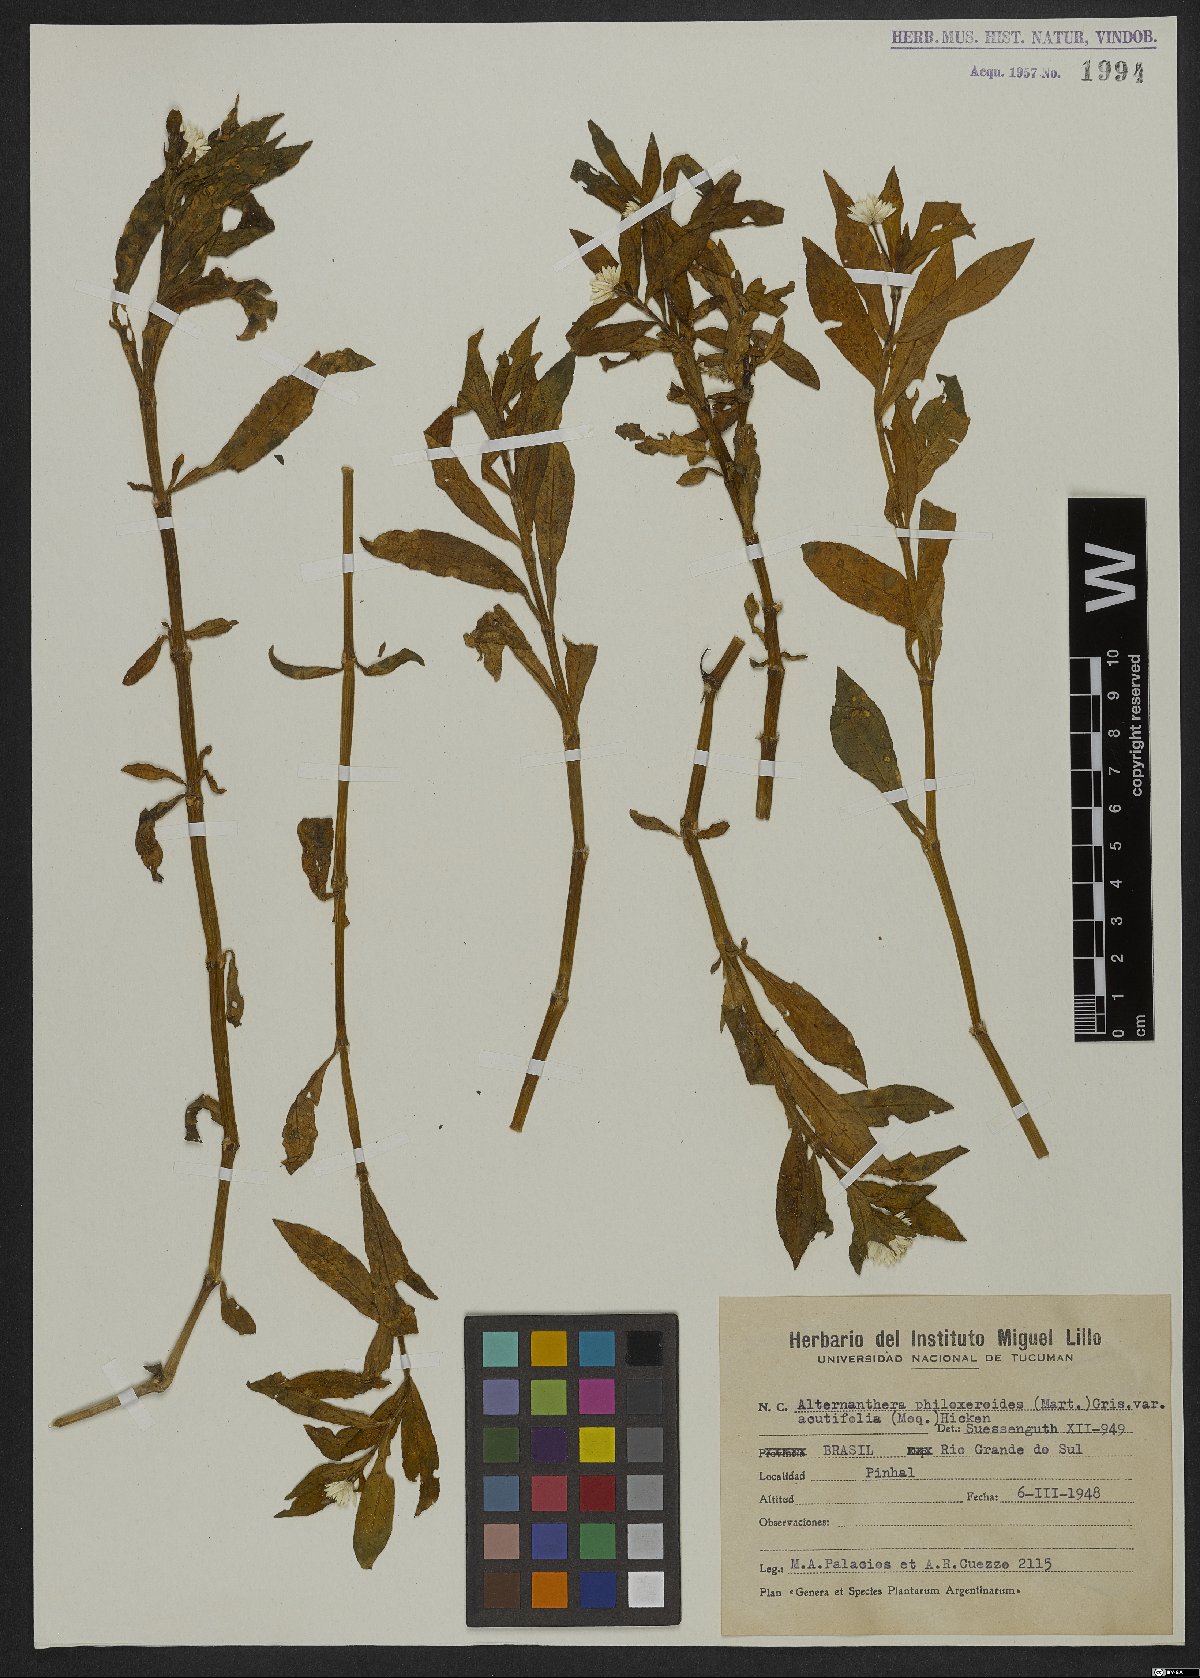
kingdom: Plantae
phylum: Tracheophyta
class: Magnoliopsida
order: Caryophyllales
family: Amaranthaceae
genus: Alternanthera
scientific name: Alternanthera caracasana
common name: Washerwoman
